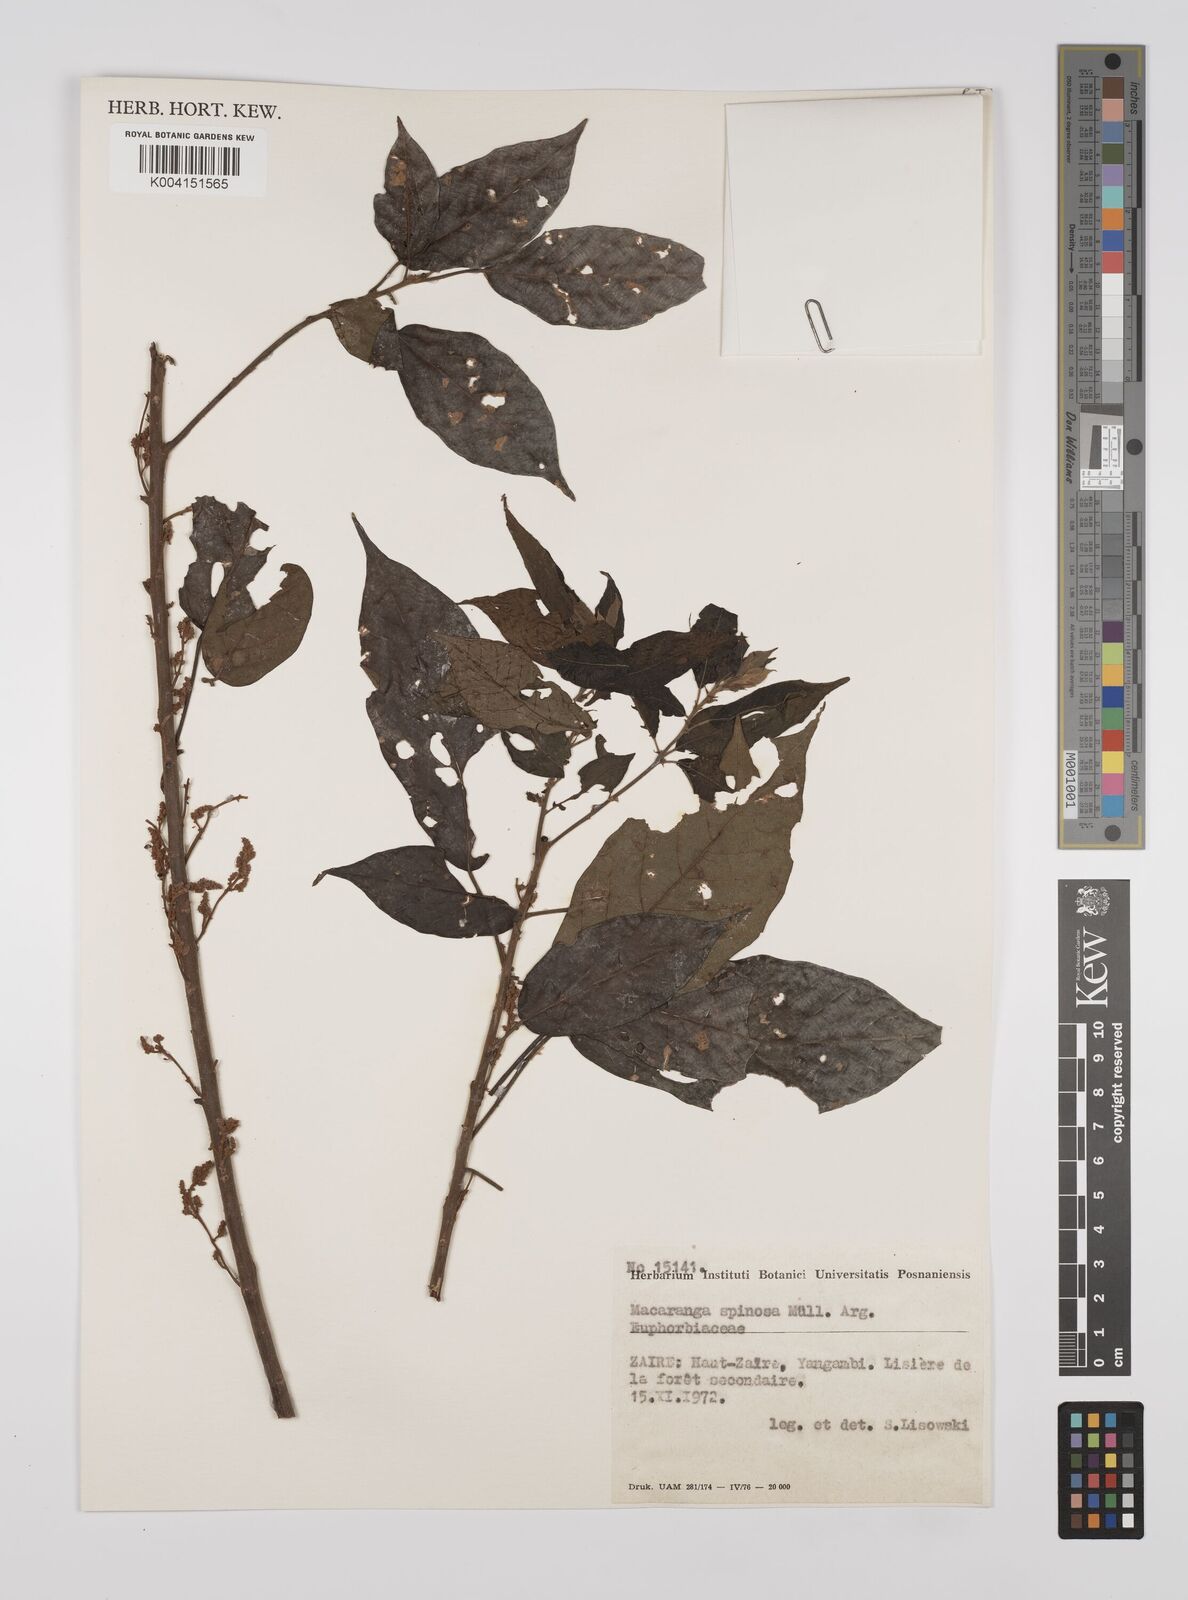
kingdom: Plantae
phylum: Tracheophyta
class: Magnoliopsida
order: Malpighiales
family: Euphorbiaceae
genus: Macaranga
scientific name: Macaranga spinosa
